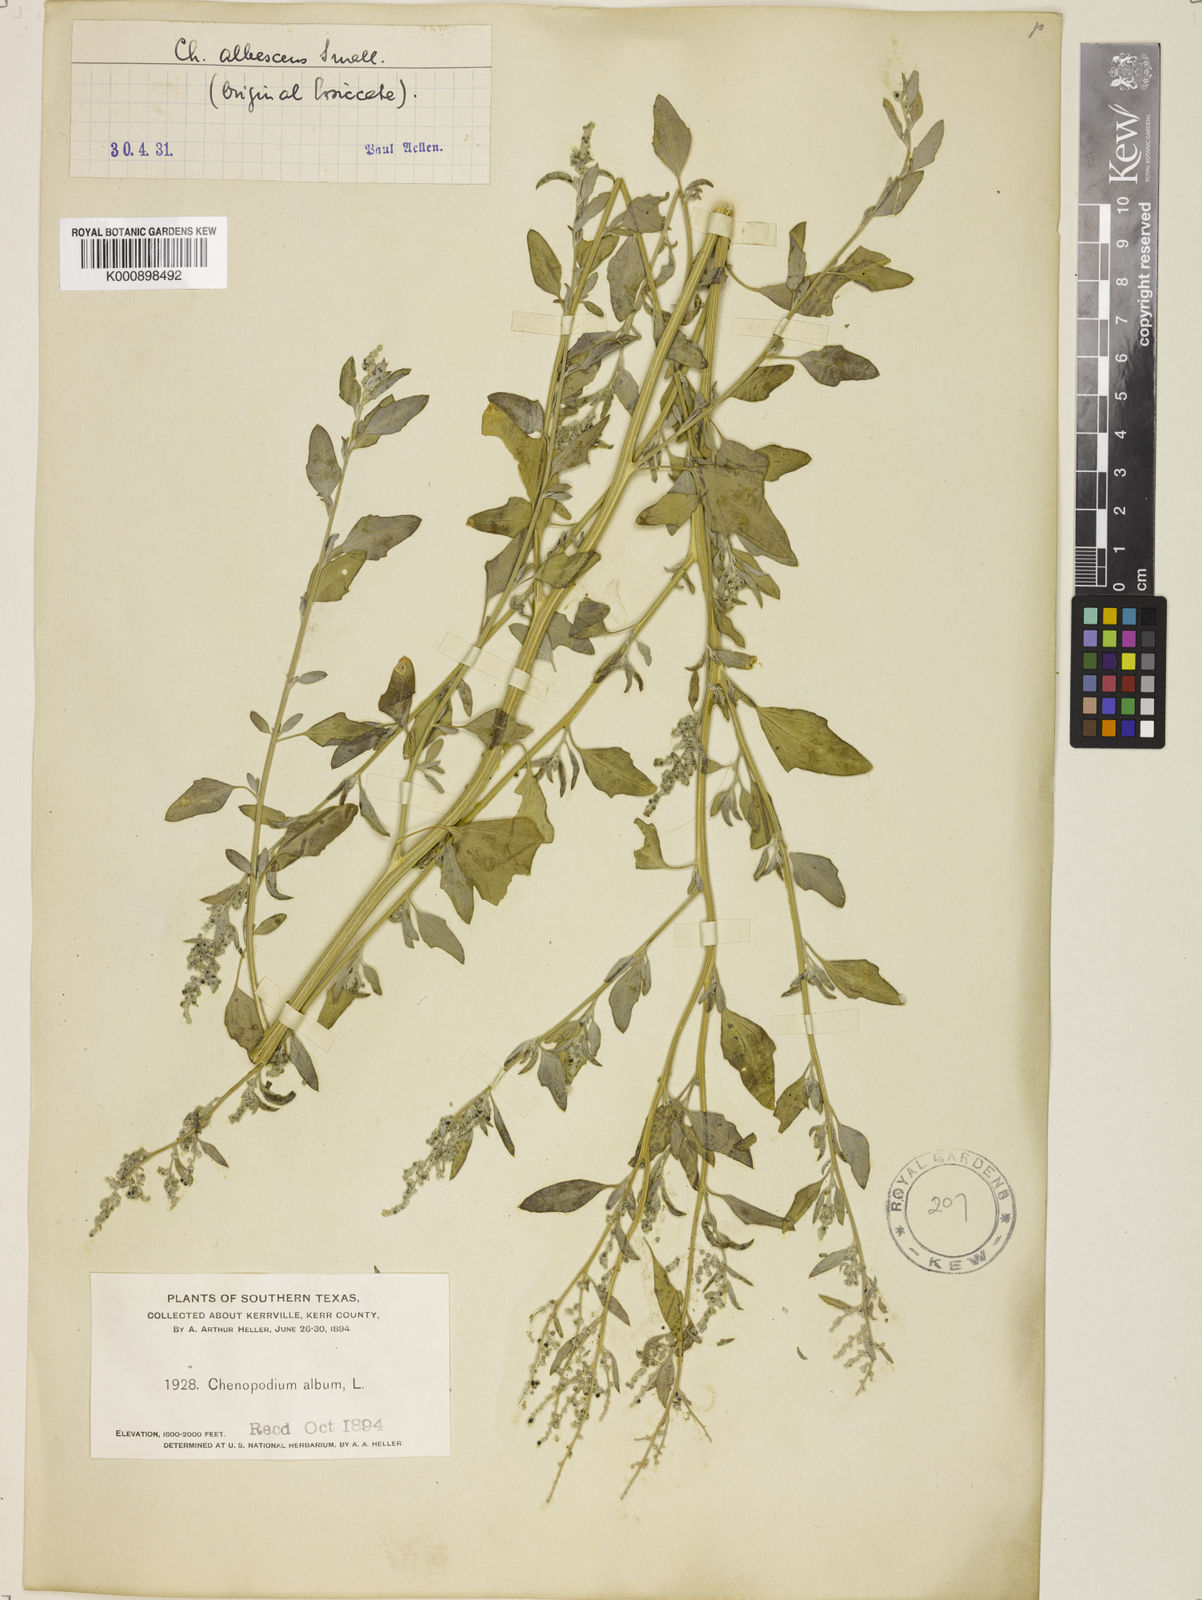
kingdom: Plantae
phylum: Tracheophyta
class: Magnoliopsida
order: Caryophyllales
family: Amaranthaceae
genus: Chenopodium
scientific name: Chenopodium albescens
